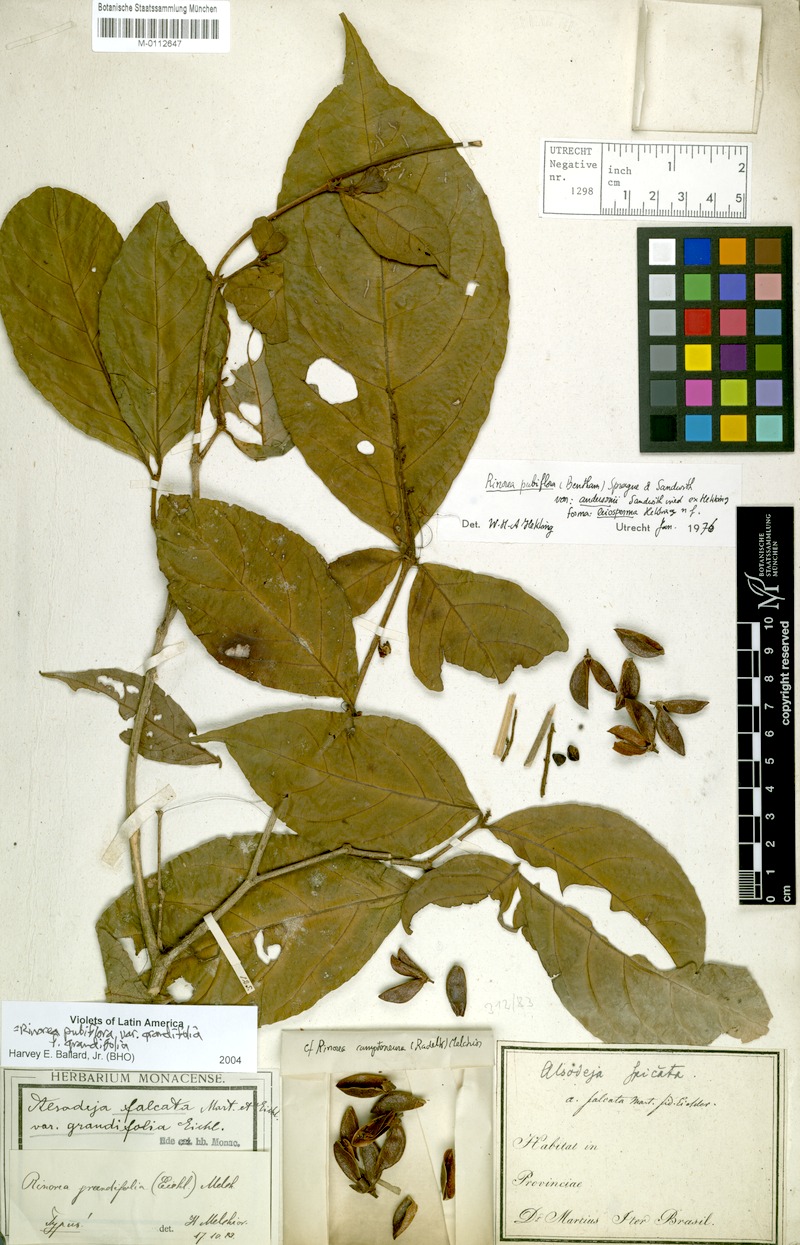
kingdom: Plantae
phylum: Tracheophyta
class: Magnoliopsida
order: Malpighiales
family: Violaceae
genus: Rinorea
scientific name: Rinorea pubiflora
